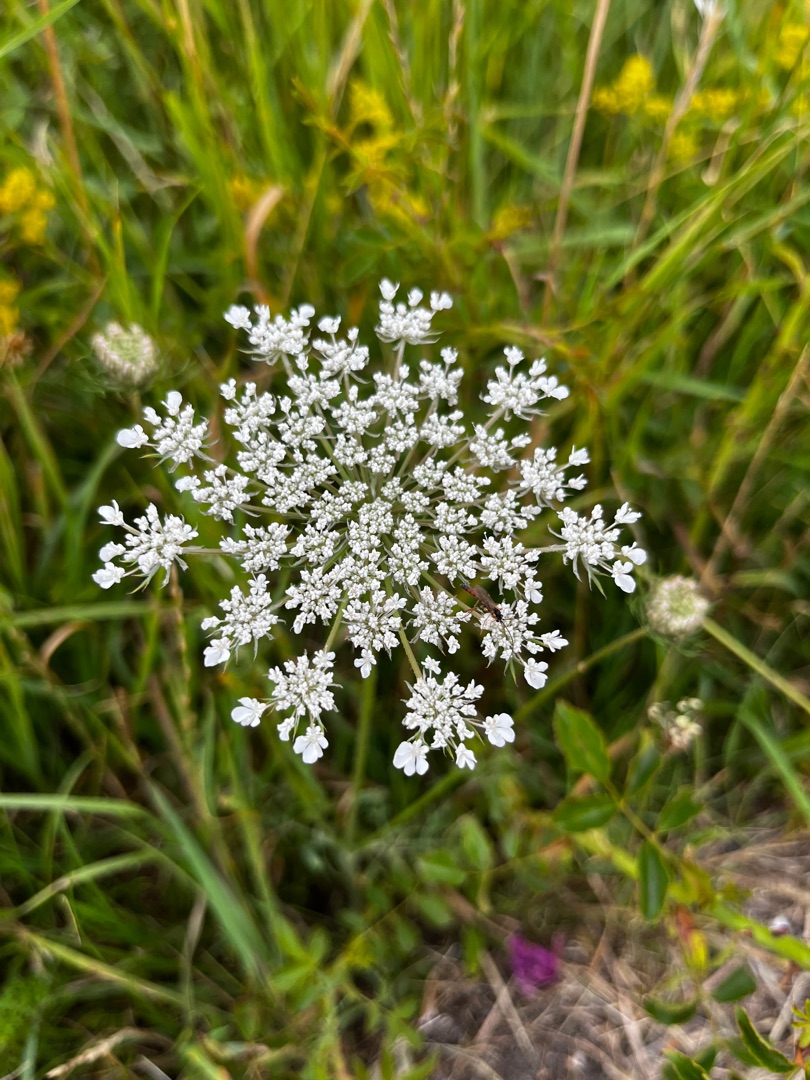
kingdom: Plantae
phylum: Tracheophyta
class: Magnoliopsida
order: Apiales
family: Apiaceae
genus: Daucus
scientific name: Daucus carota
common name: Vild gulerod
